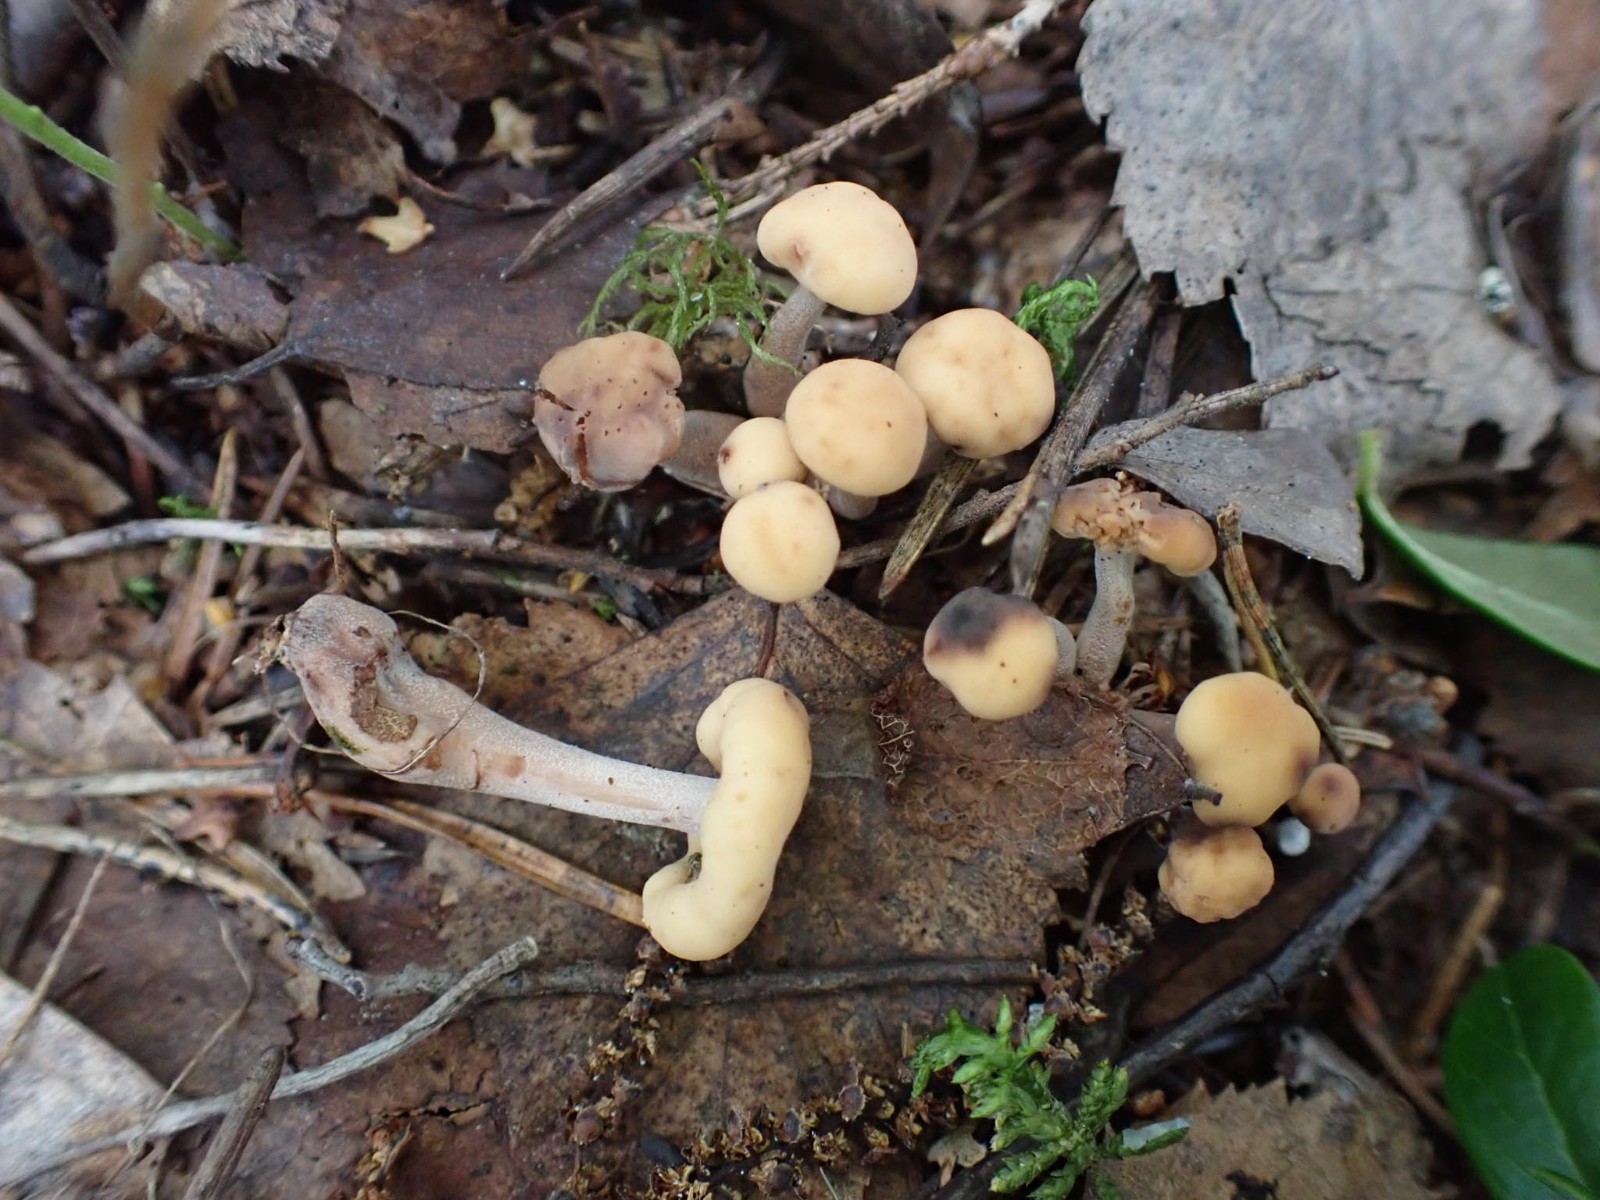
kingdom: Fungi
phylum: Ascomycota
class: Leotiomycetes
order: Rhytismatales
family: Cudoniaceae
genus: Cudonia
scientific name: Cudonia confusa
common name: ensfarvet hjelmmorkel
